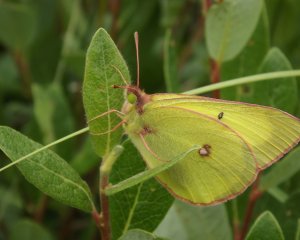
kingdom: Animalia
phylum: Arthropoda
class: Insecta
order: Lepidoptera
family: Pieridae
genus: Colias
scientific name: Colias gigantea
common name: Giant Sulphur
